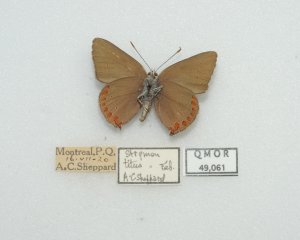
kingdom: Animalia
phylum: Arthropoda
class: Insecta
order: Lepidoptera
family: Lycaenidae
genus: Harkenclenus
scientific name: Harkenclenus titus
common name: Coral Hairstreak
